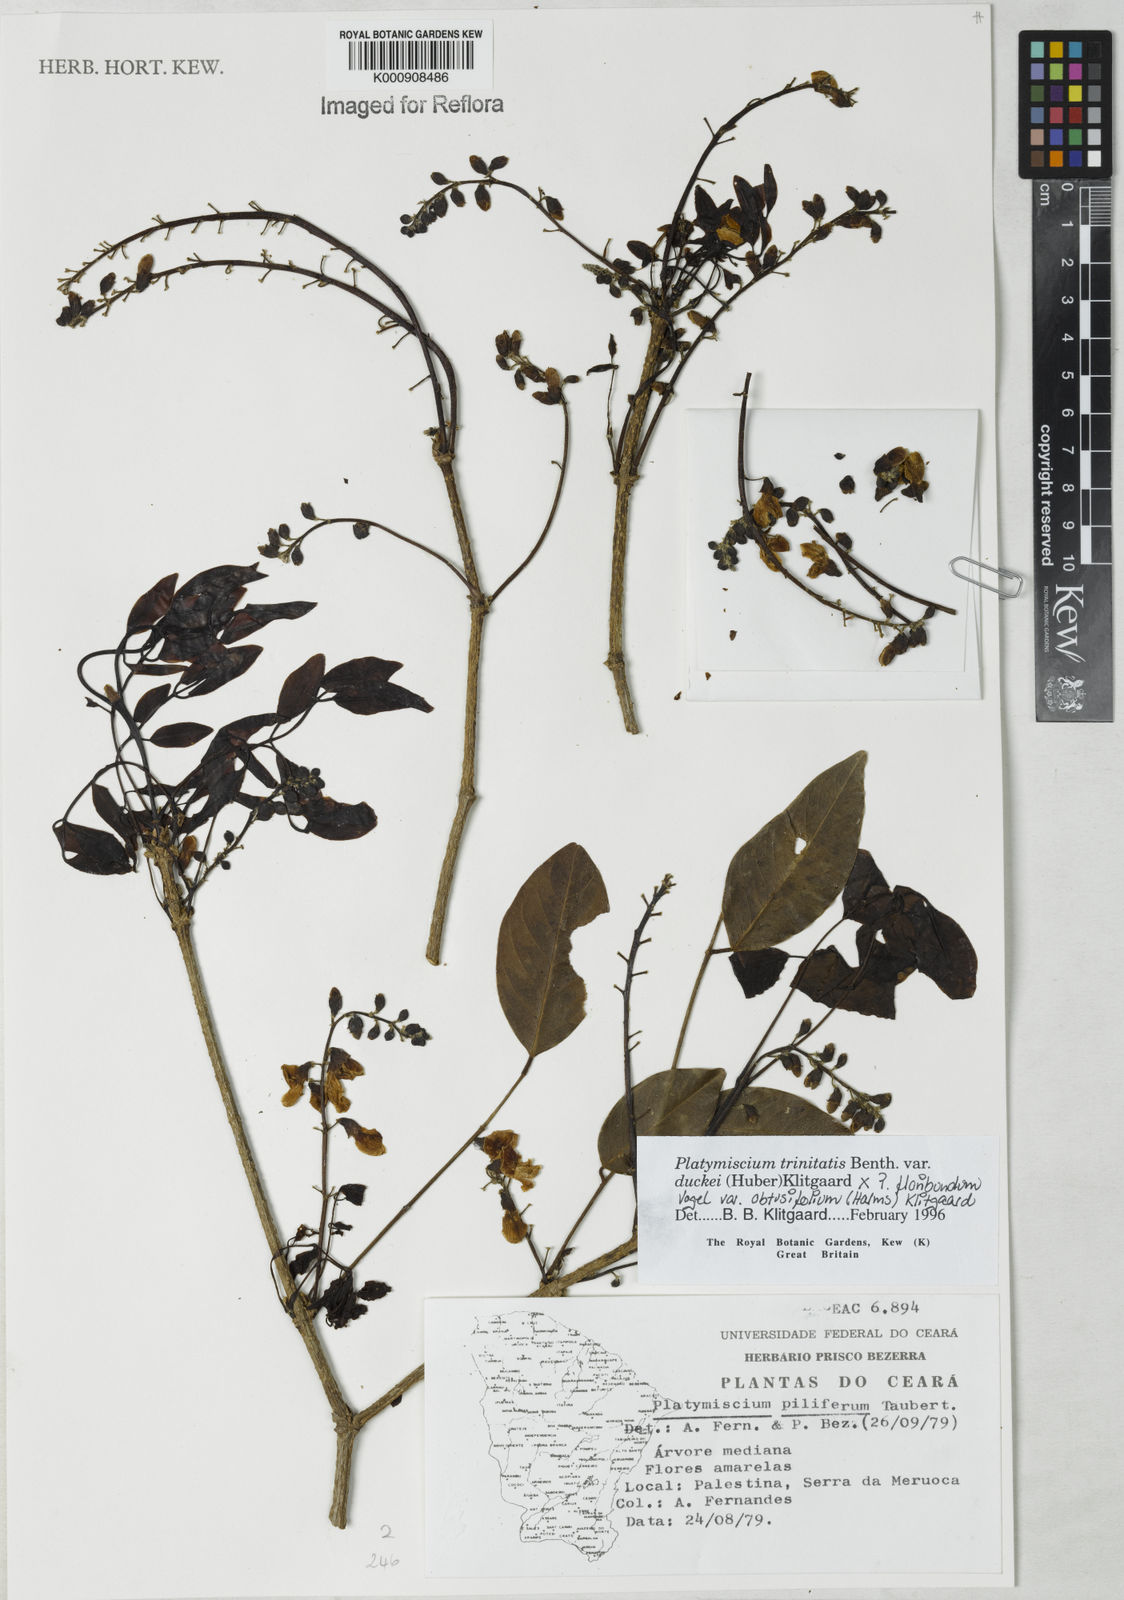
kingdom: Plantae
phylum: Tracheophyta
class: Magnoliopsida
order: Fabales
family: Fabaceae
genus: Platymiscium
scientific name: Platymiscium trinitatis
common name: Trinidad macawood
